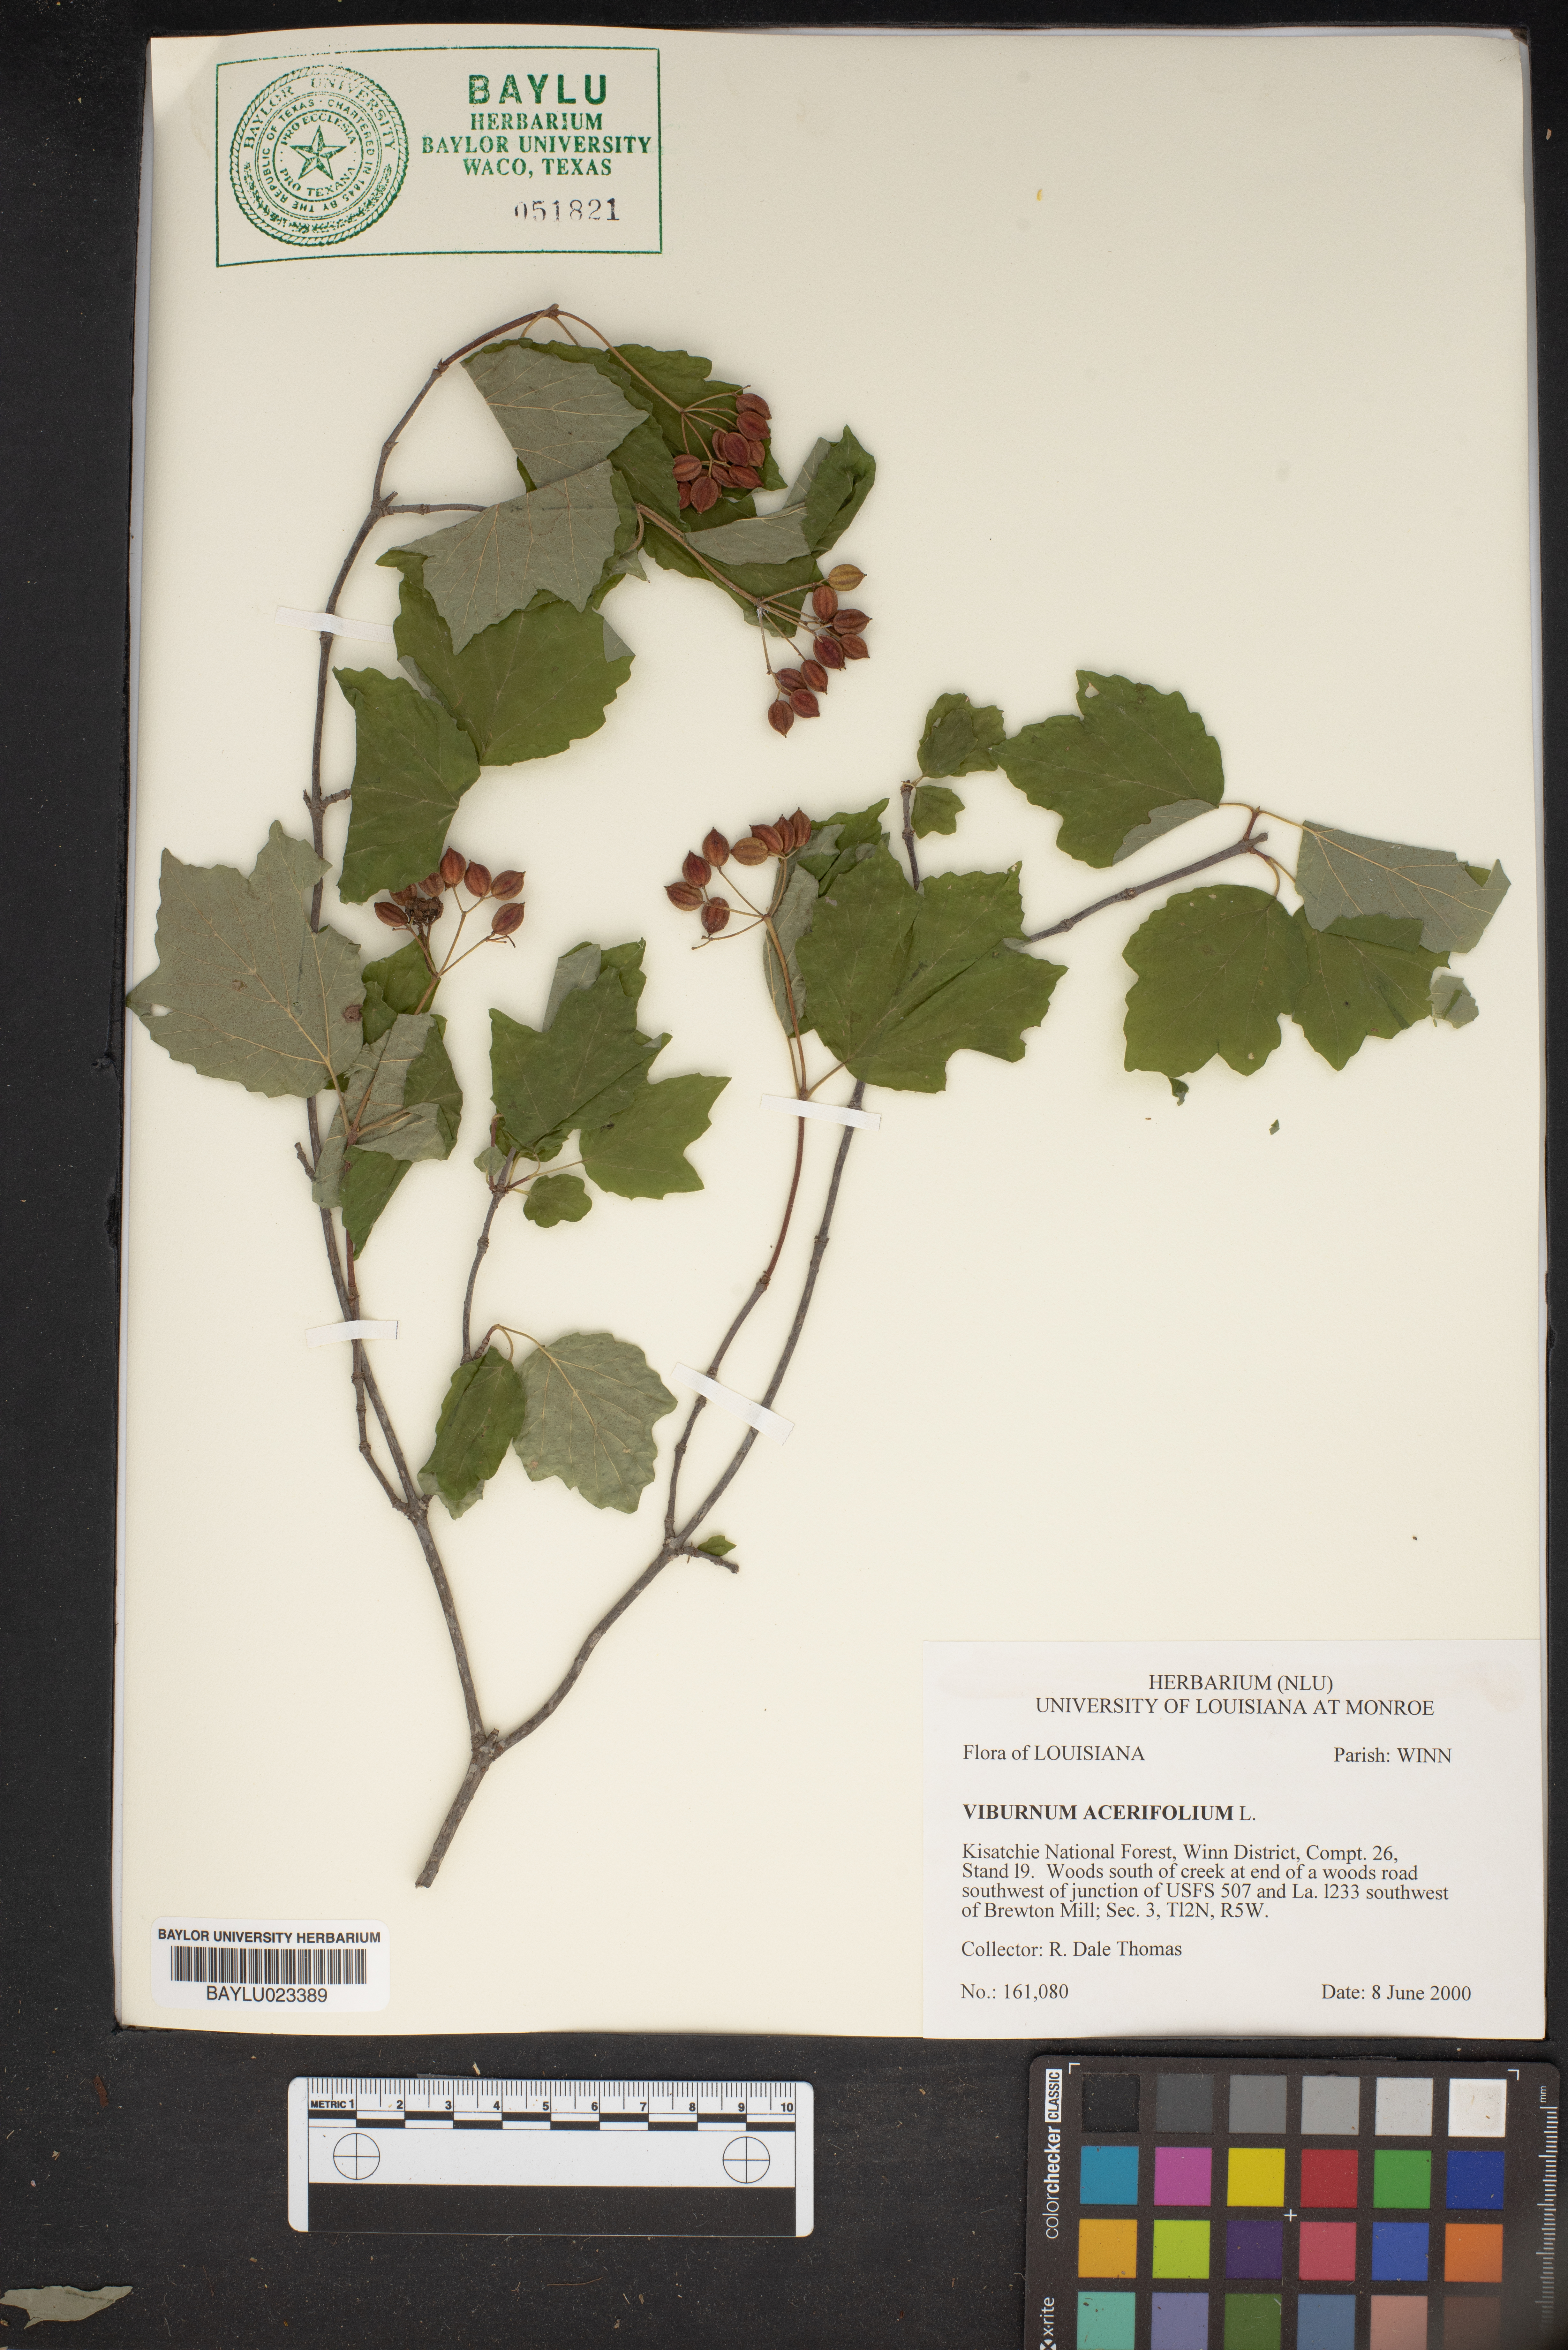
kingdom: Plantae
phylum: Tracheophyta
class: Magnoliopsida
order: Dipsacales
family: Viburnaceae
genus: Viburnum
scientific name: Viburnum acerifolium
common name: Dockmackie
